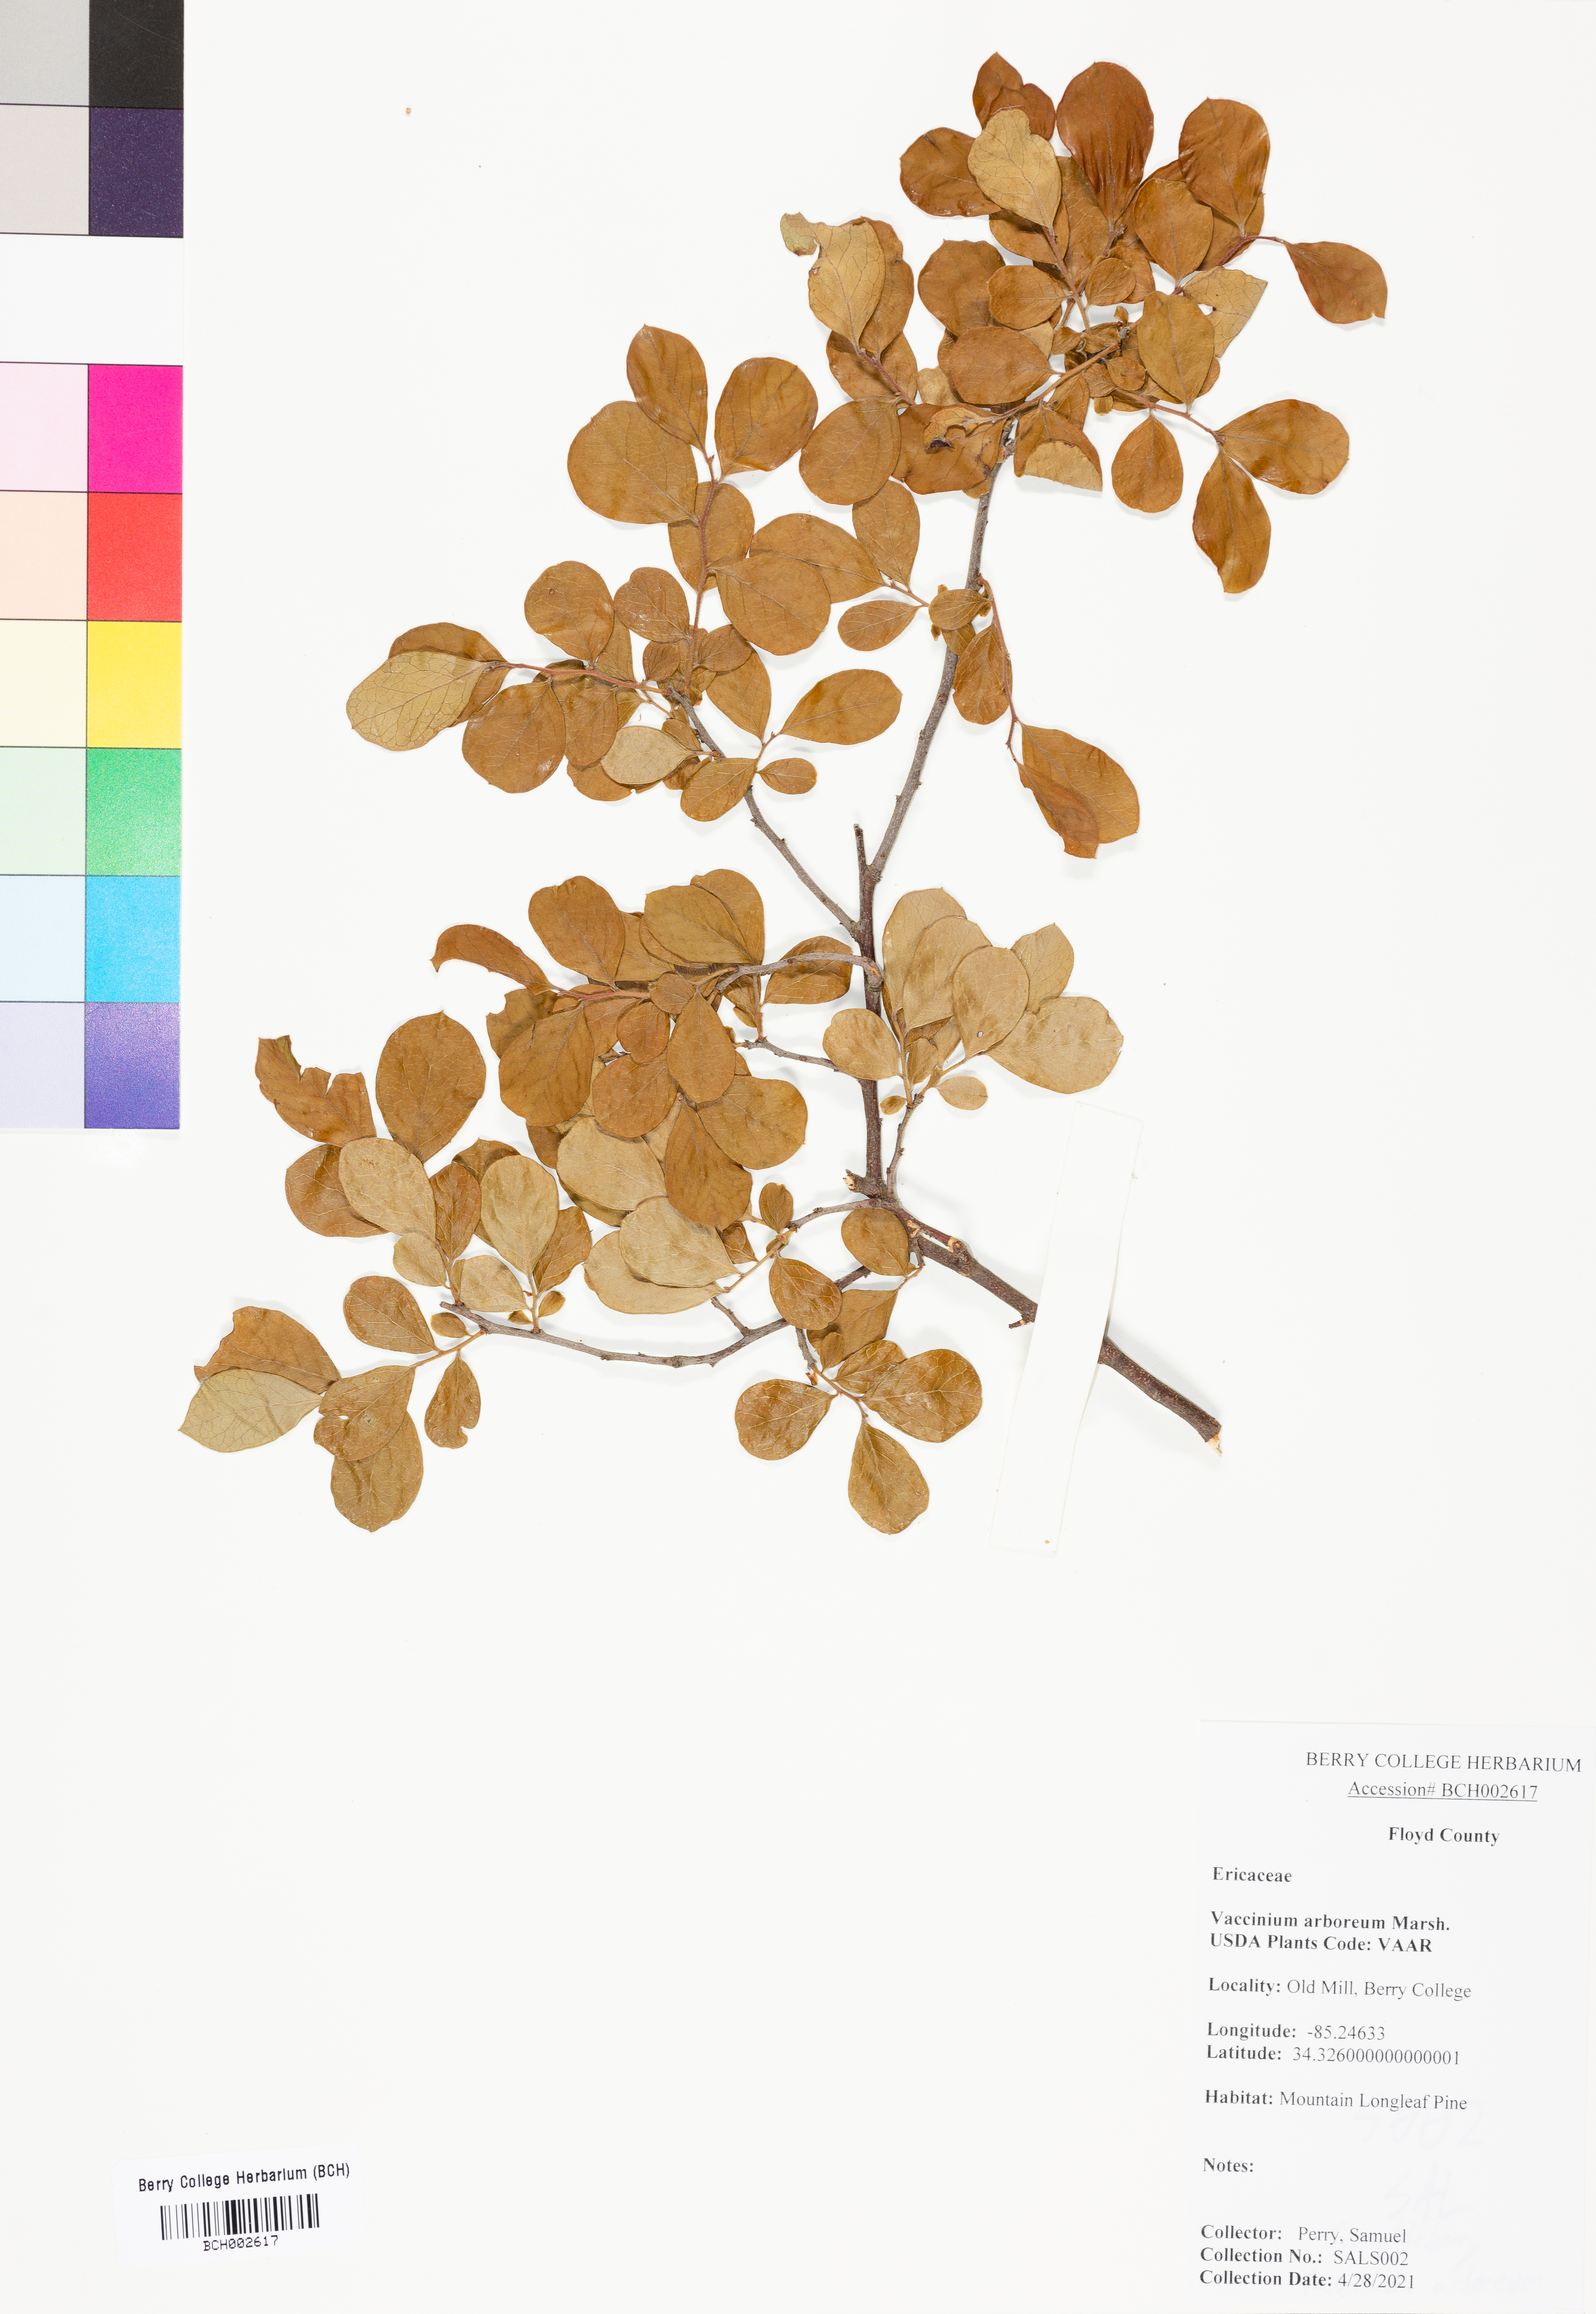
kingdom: Plantae
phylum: Tracheophyta
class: Magnoliopsida
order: Ericales
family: Ericaceae
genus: Vaccinium
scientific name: Vaccinium arboreum
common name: Farkleberry
